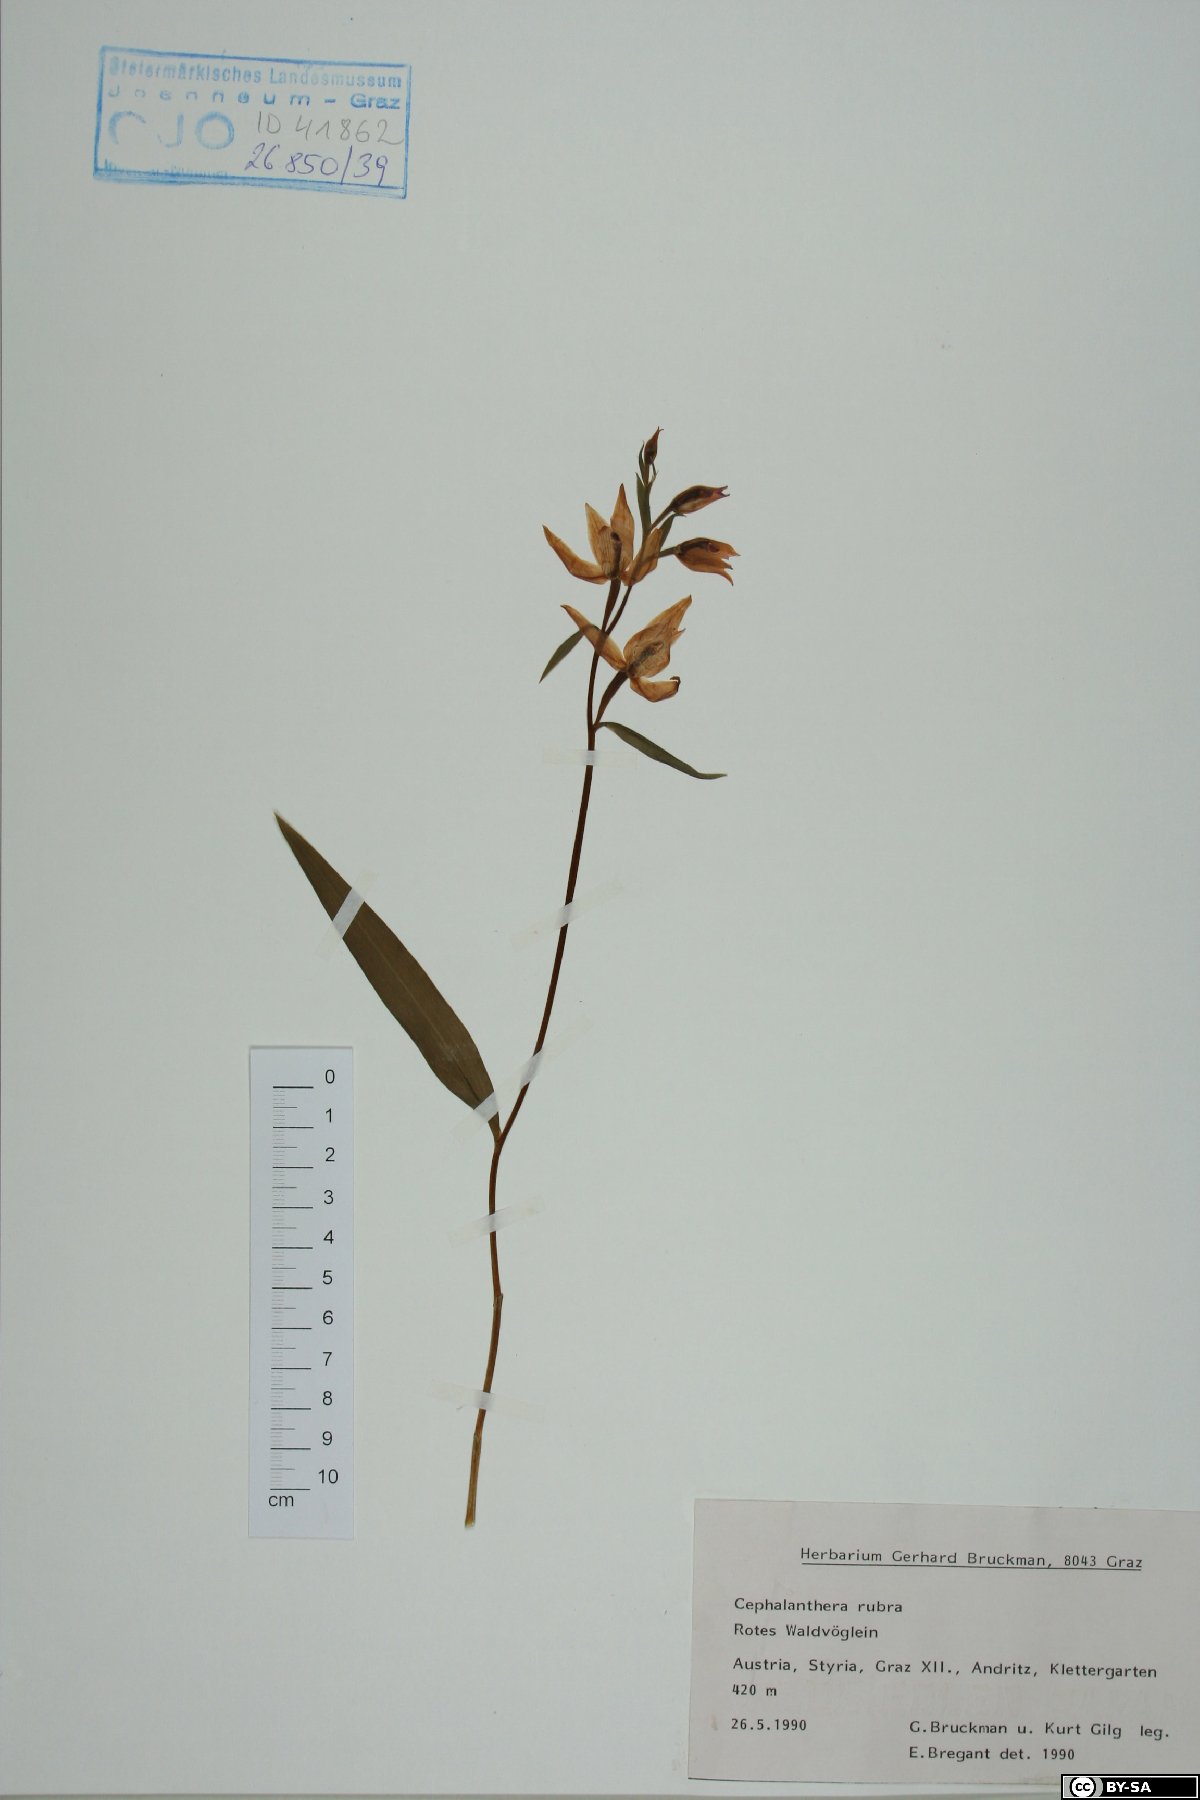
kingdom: Plantae
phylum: Tracheophyta
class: Liliopsida
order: Asparagales
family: Orchidaceae
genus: Cephalanthera
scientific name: Cephalanthera rubra
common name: Red helleborine
